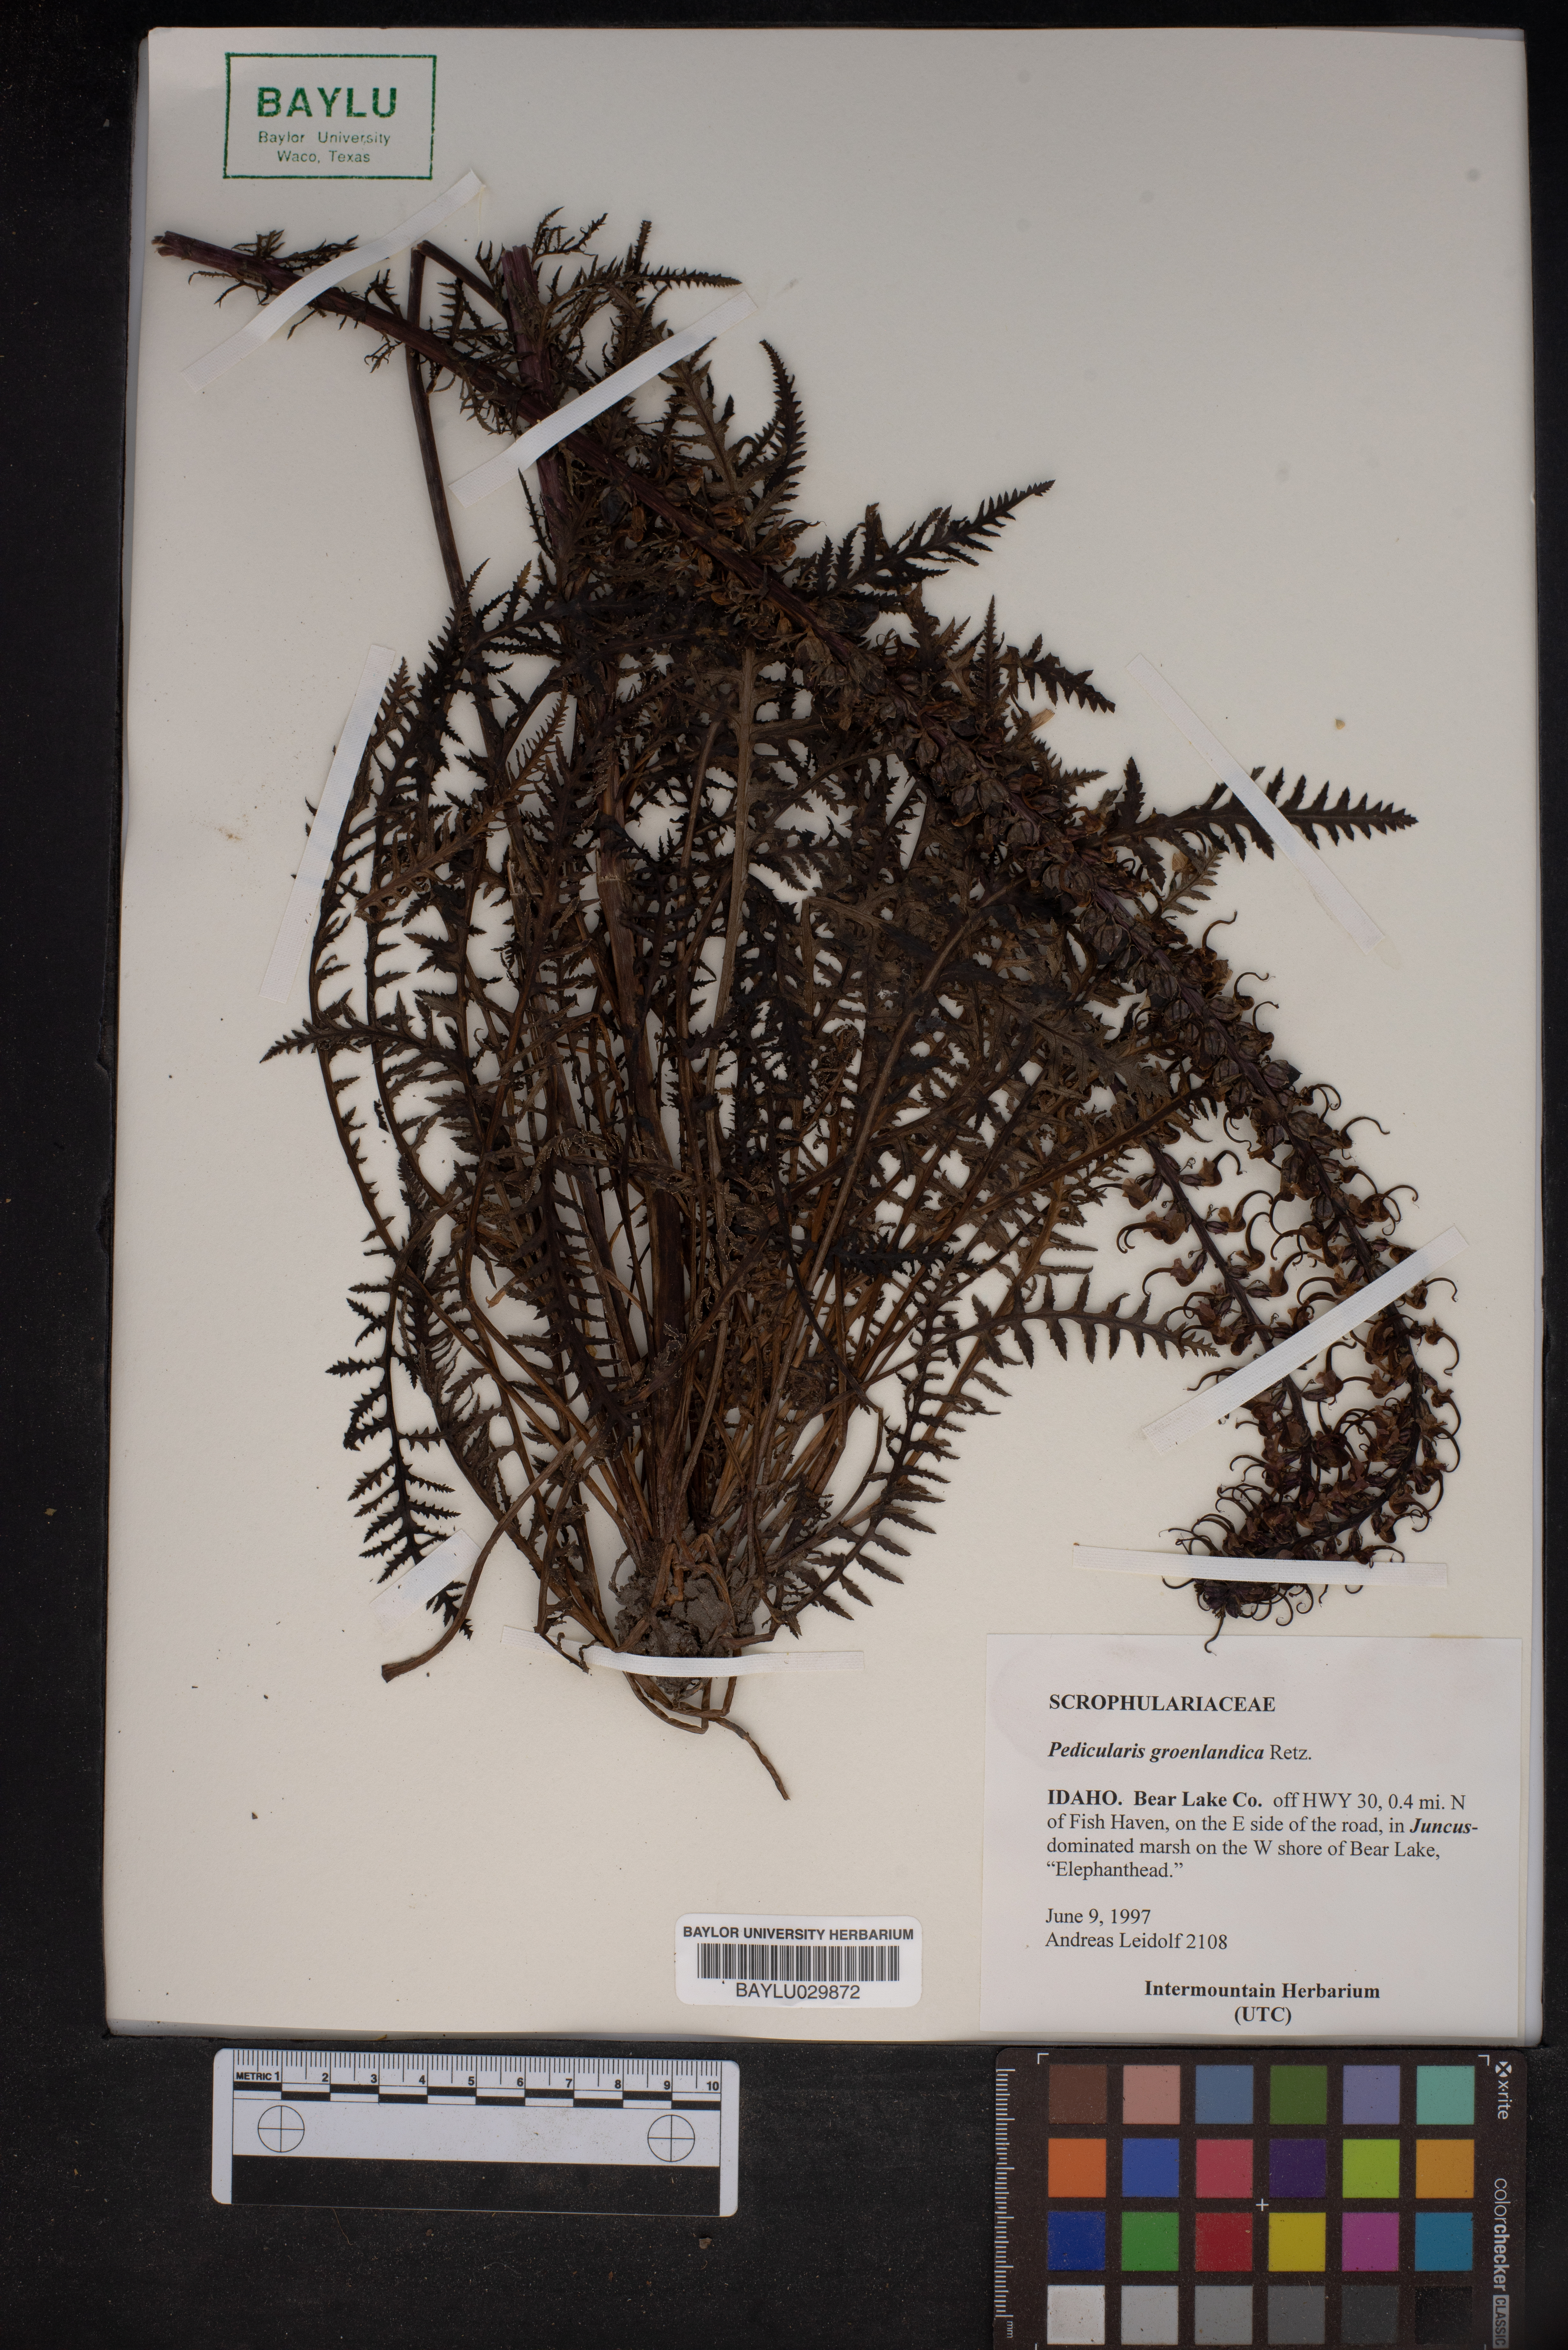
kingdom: Plantae
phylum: Tracheophyta
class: Magnoliopsida
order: Lamiales
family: Orobanchaceae
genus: Pedicularis
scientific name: Pedicularis groenlandica
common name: Elephant's-head
